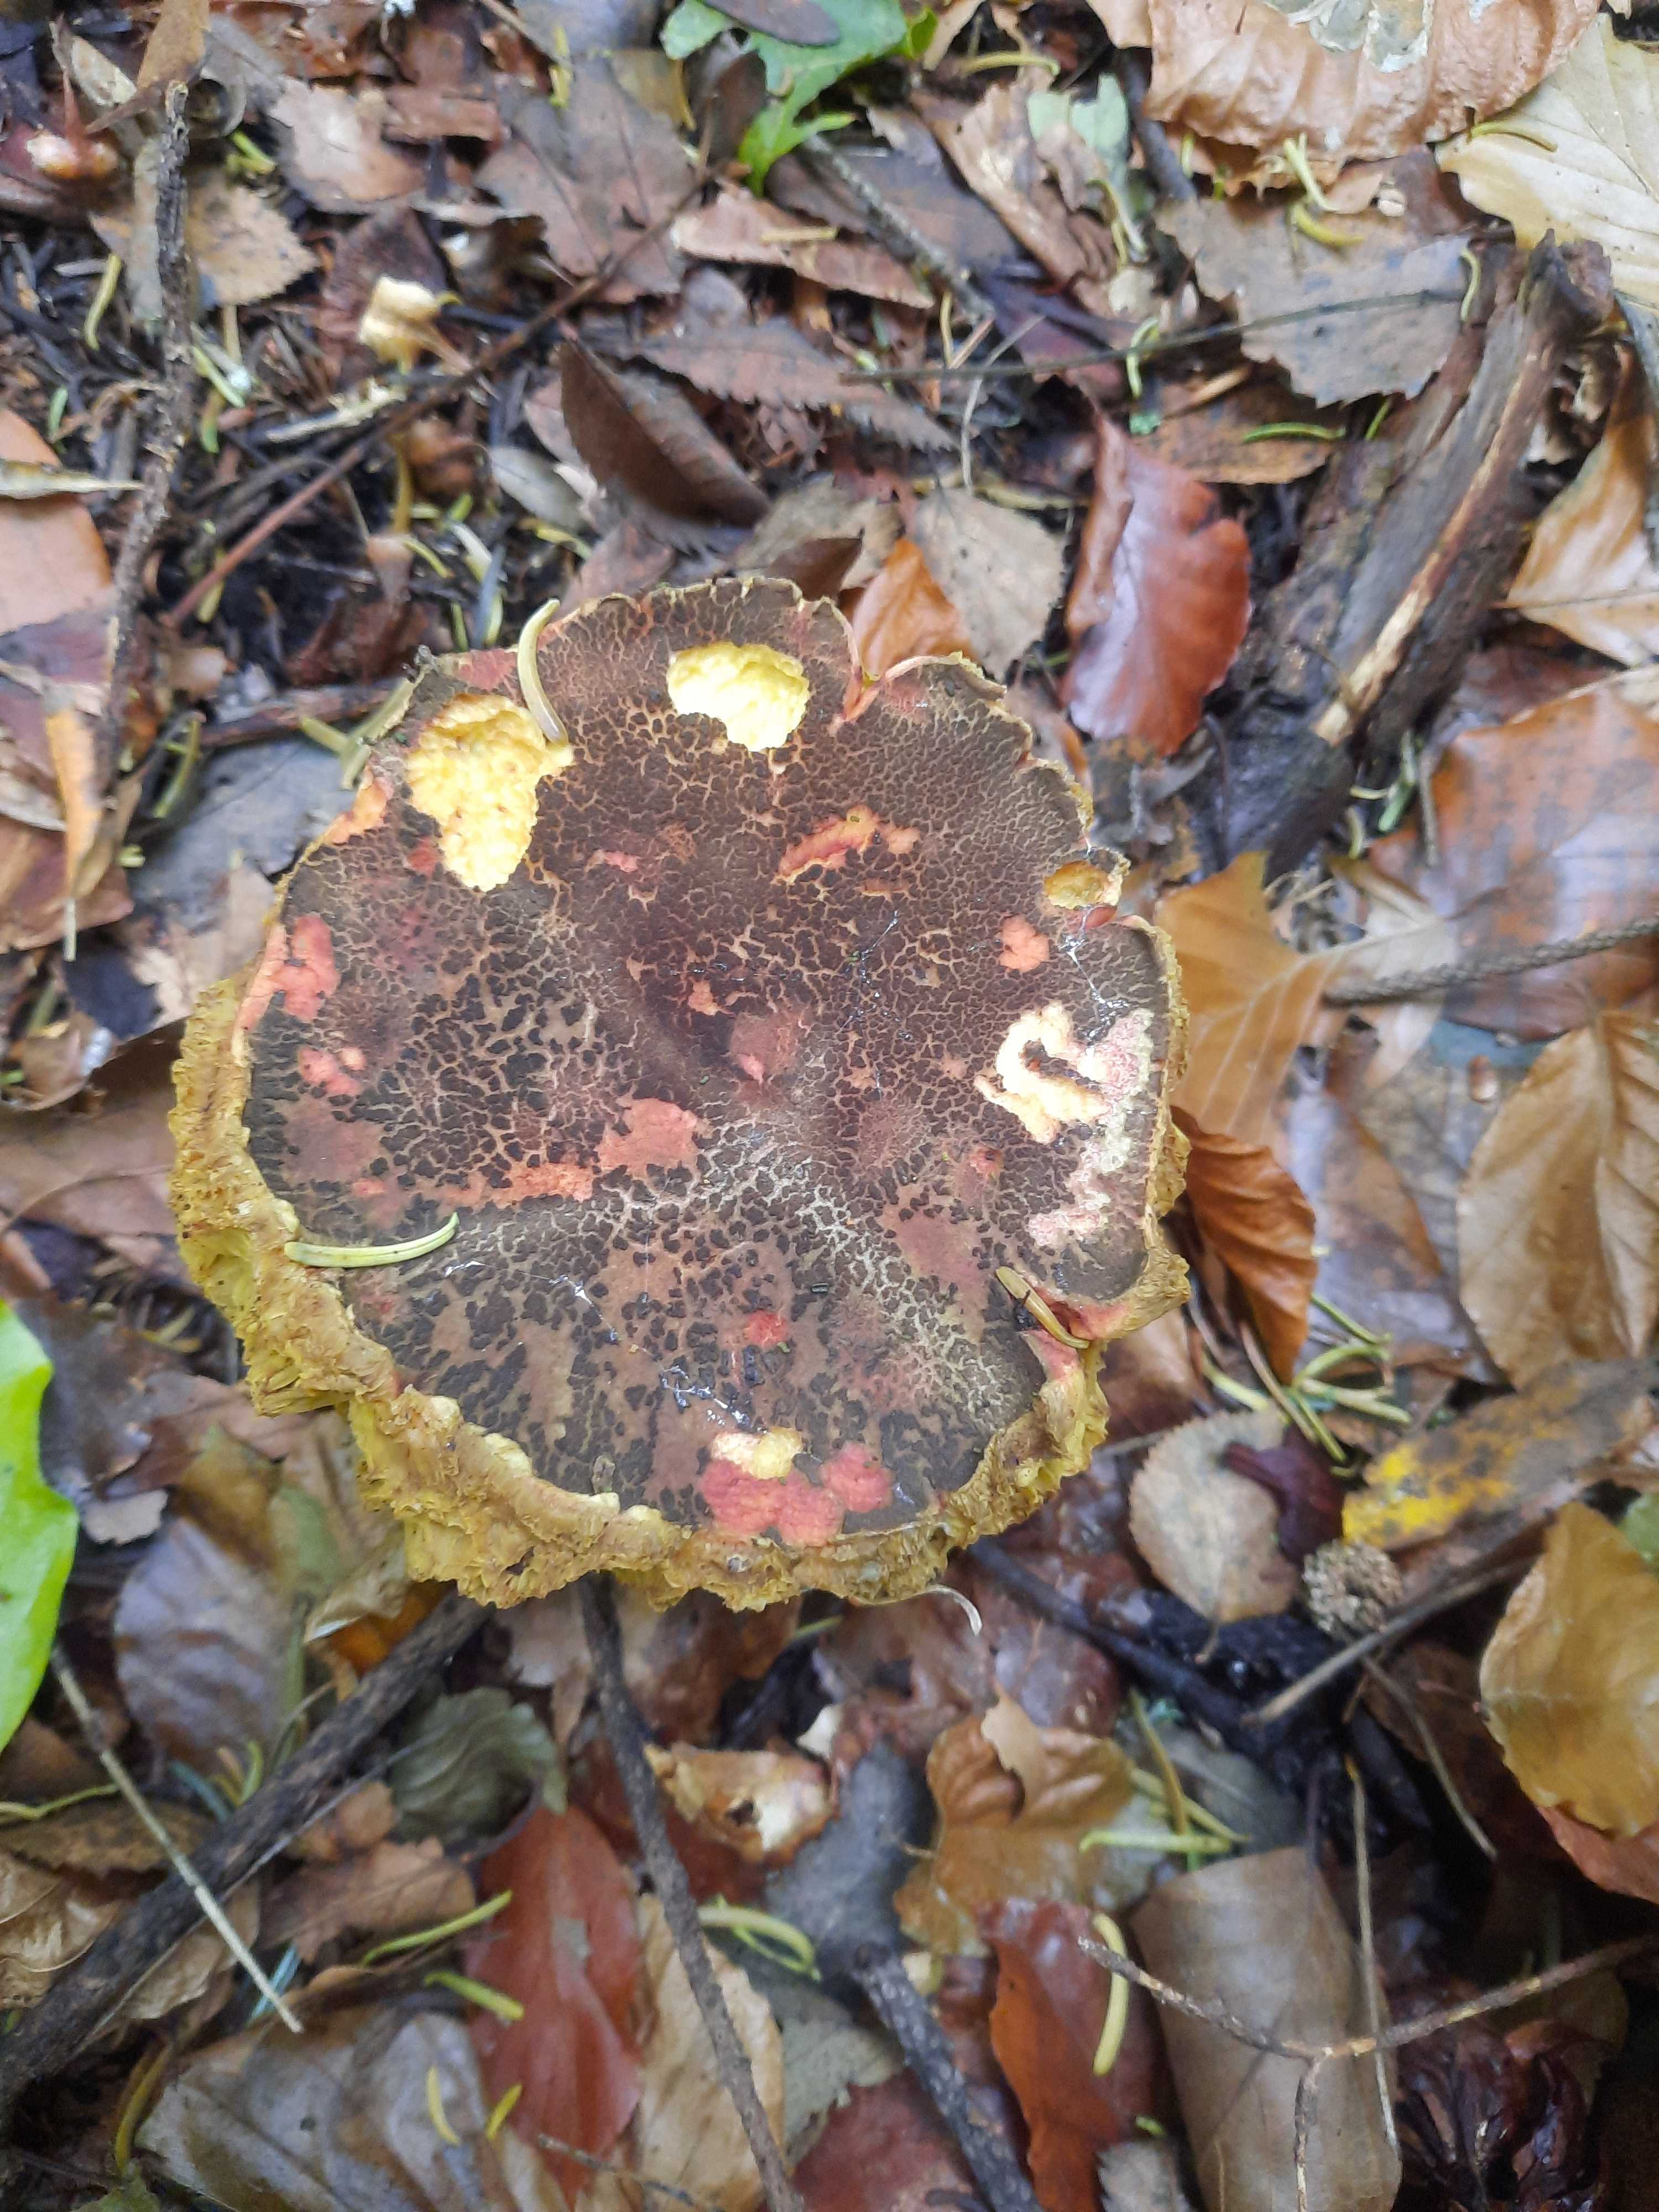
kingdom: Fungi
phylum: Basidiomycota
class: Agaricomycetes
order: Boletales
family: Boletaceae
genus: Xerocomellus
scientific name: Xerocomellus chrysenteron
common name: rødsprukken rørhat
